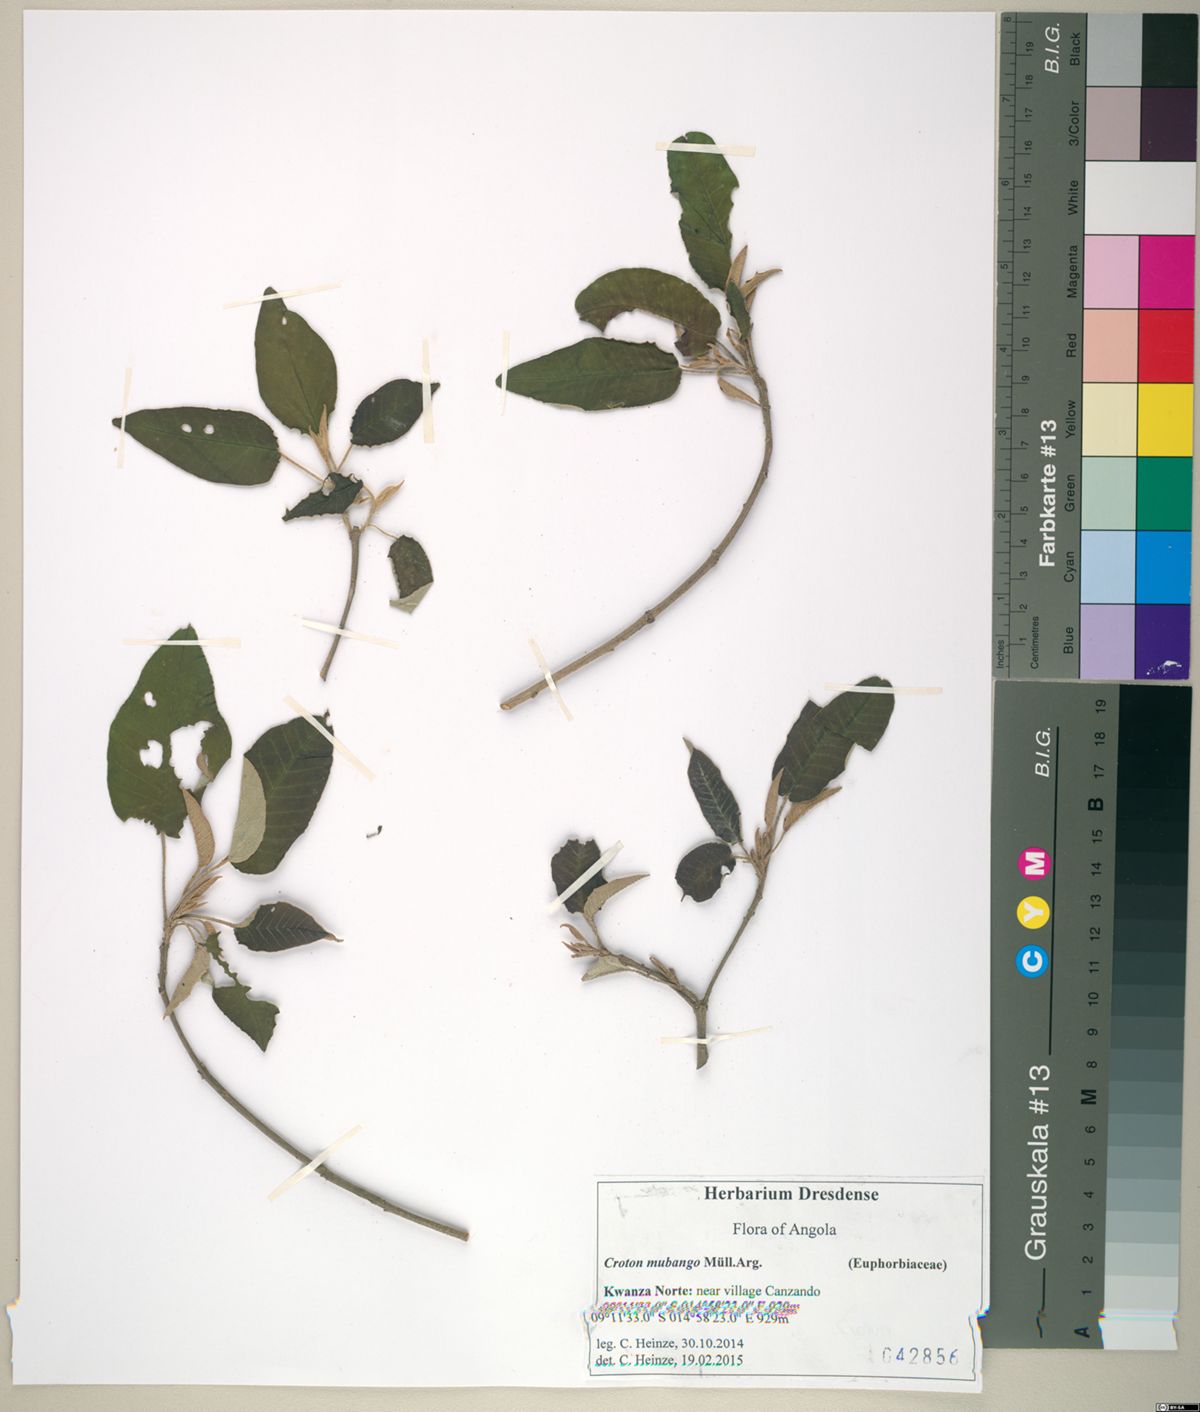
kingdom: Plantae
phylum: Tracheophyta
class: Magnoliopsida
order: Malpighiales
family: Euphorbiaceae
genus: Croton
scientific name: Croton mubango
